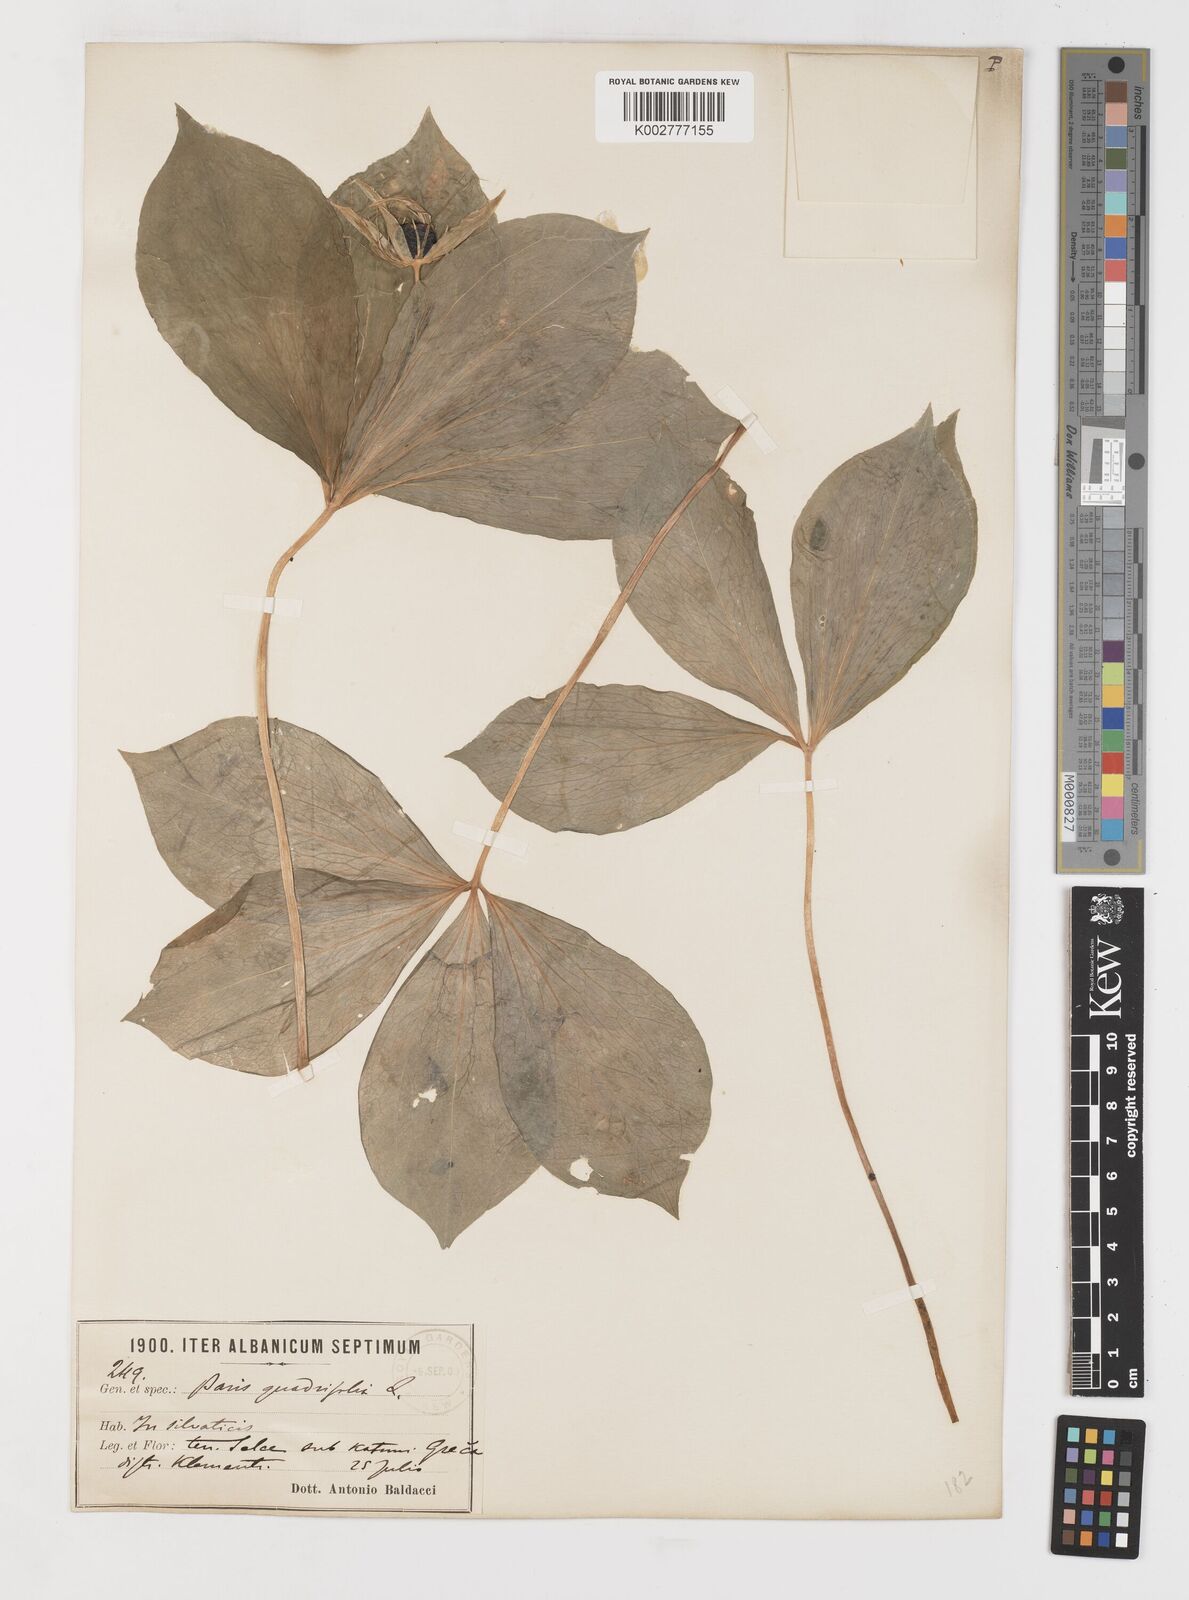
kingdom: Plantae
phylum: Tracheophyta
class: Liliopsida
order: Liliales
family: Melanthiaceae
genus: Paris
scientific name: Paris quadrifolia
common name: Herb-paris
